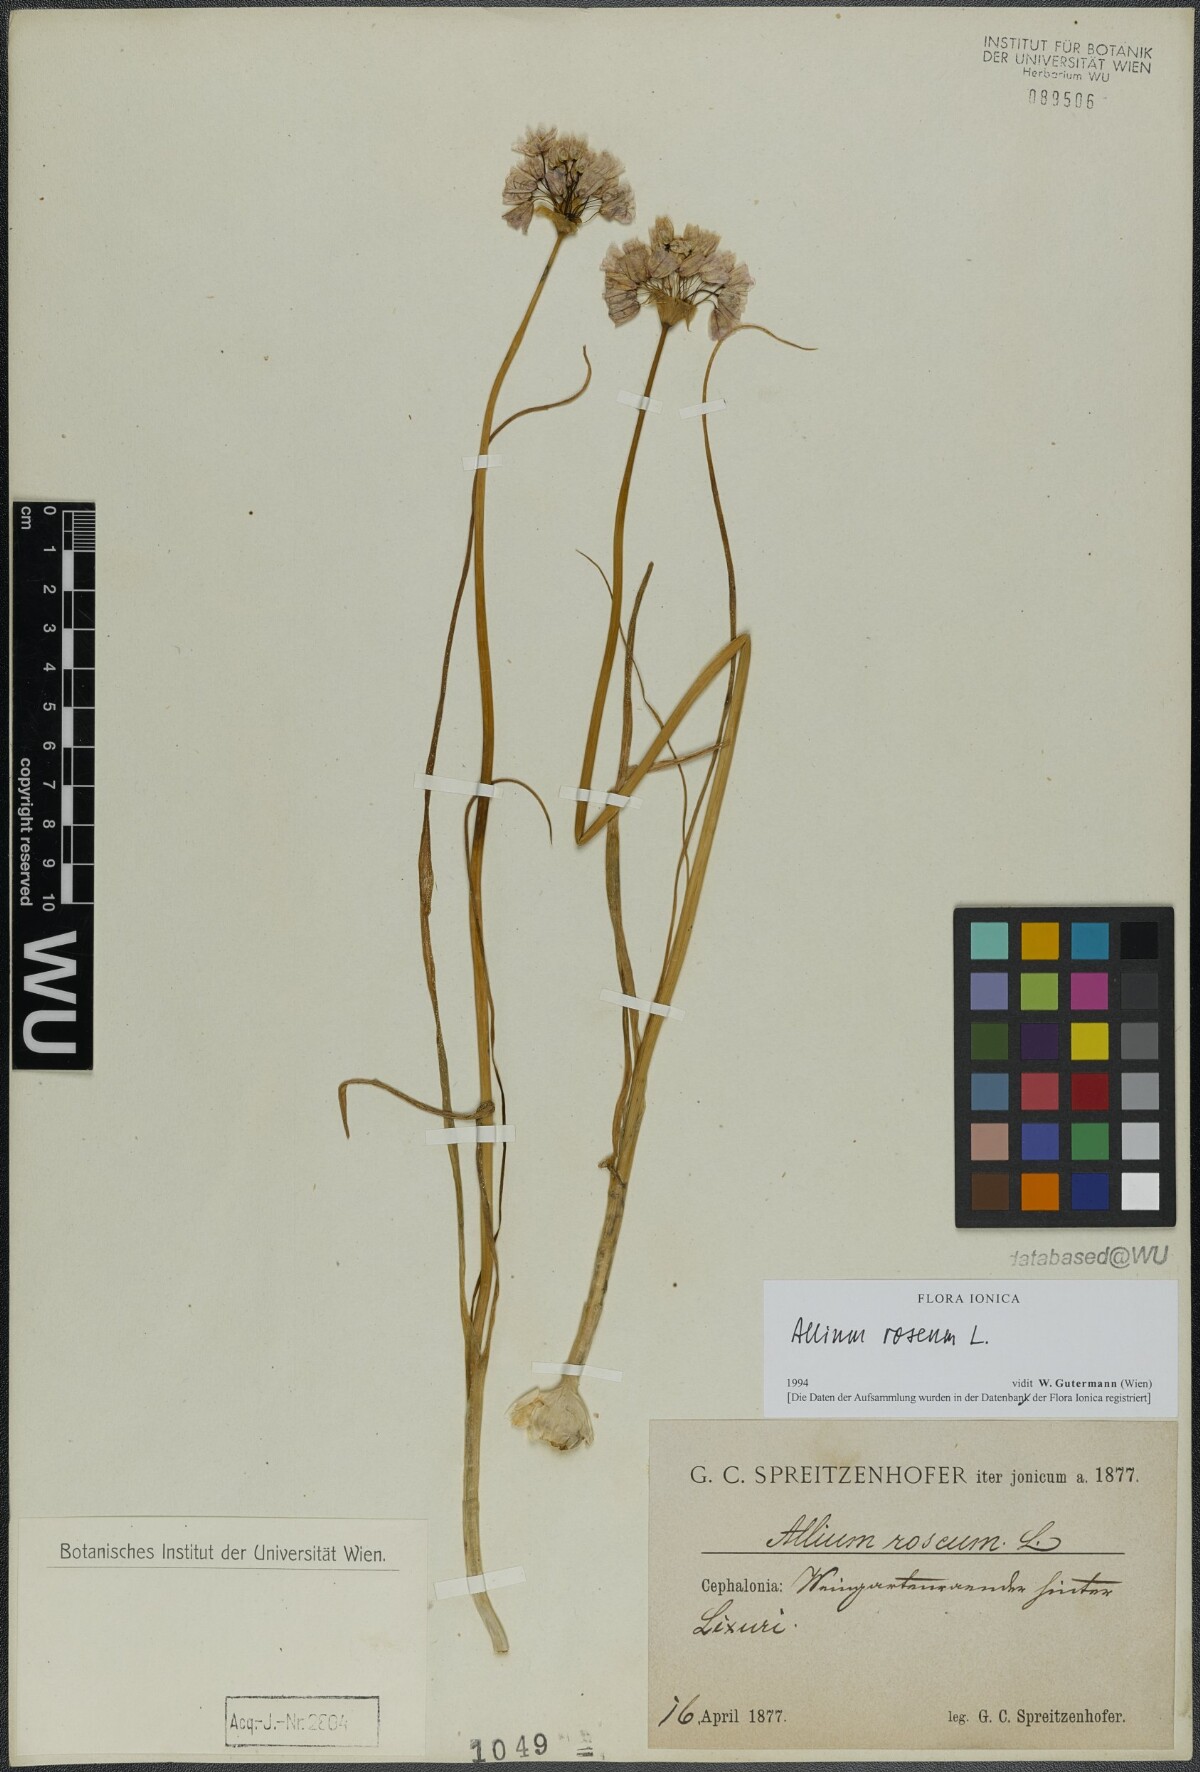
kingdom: Plantae
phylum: Tracheophyta
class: Liliopsida
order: Asparagales
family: Amaryllidaceae
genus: Allium
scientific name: Allium roseum
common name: Rosy garlic
